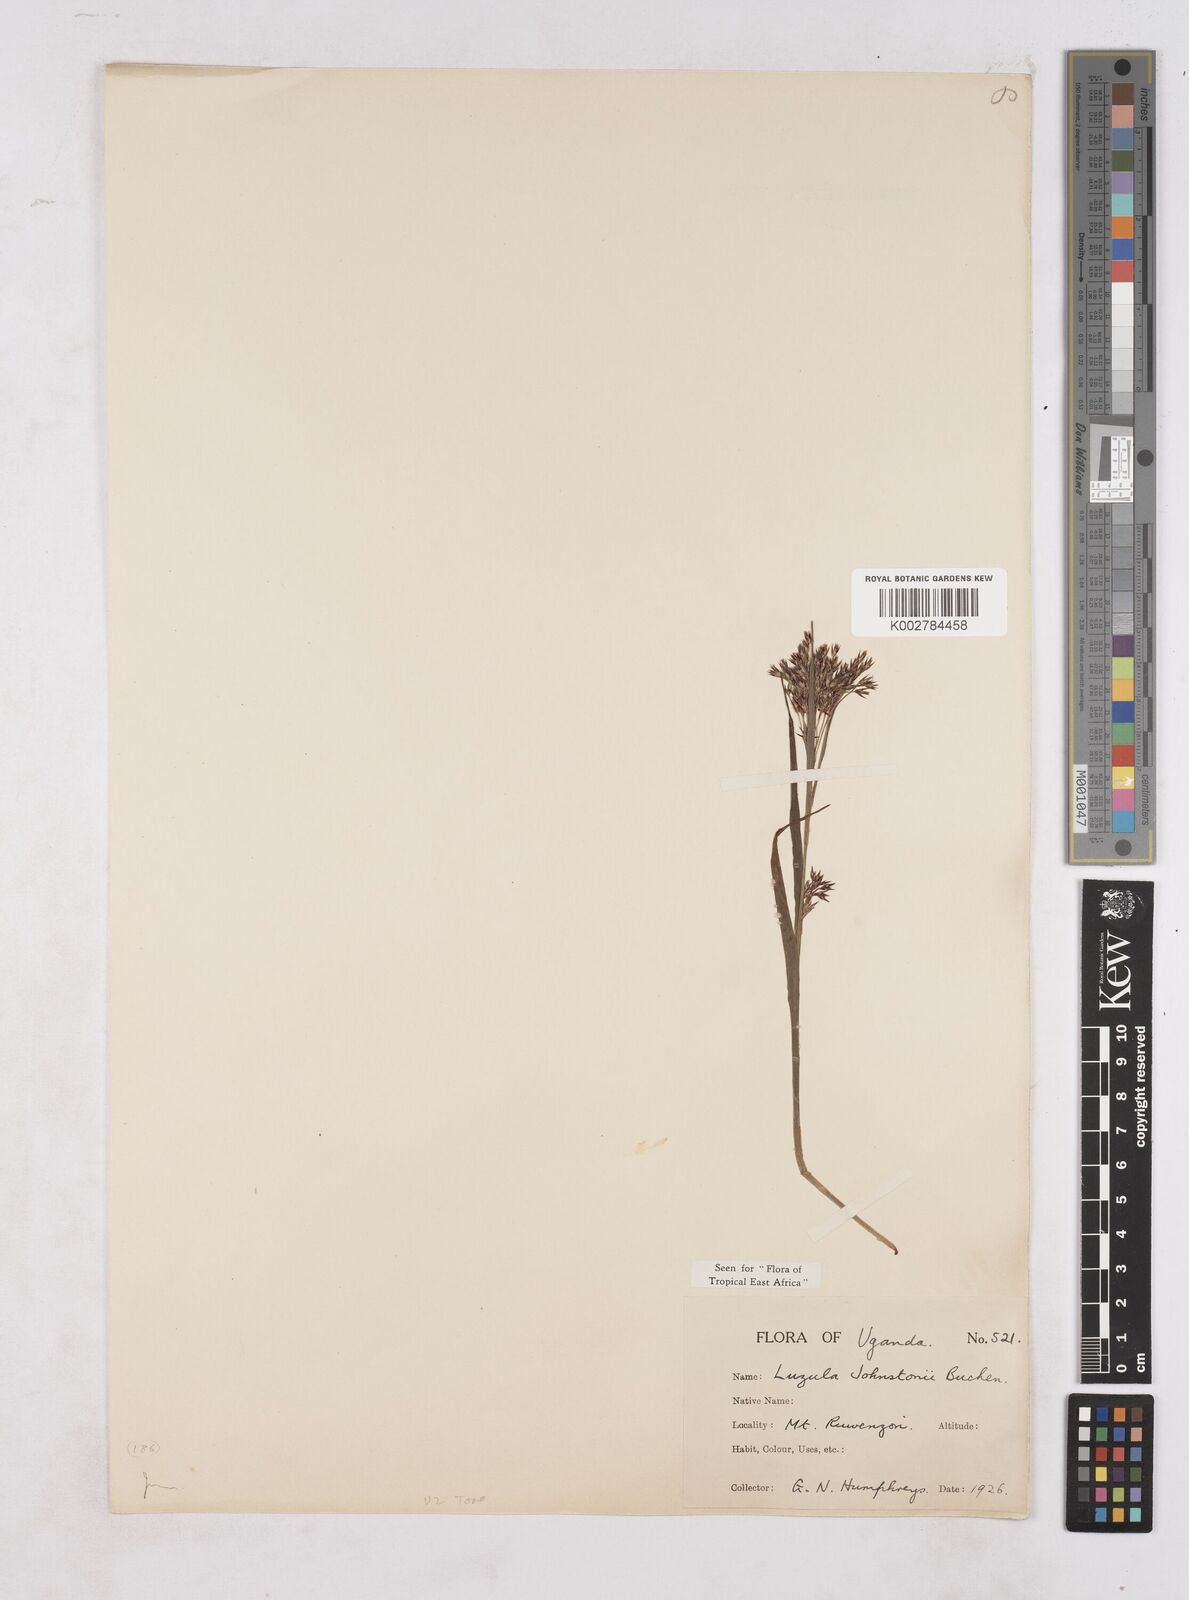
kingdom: Plantae
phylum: Tracheophyta
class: Liliopsida
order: Poales
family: Juncaceae
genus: Luzula
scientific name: Luzula johnstonii
